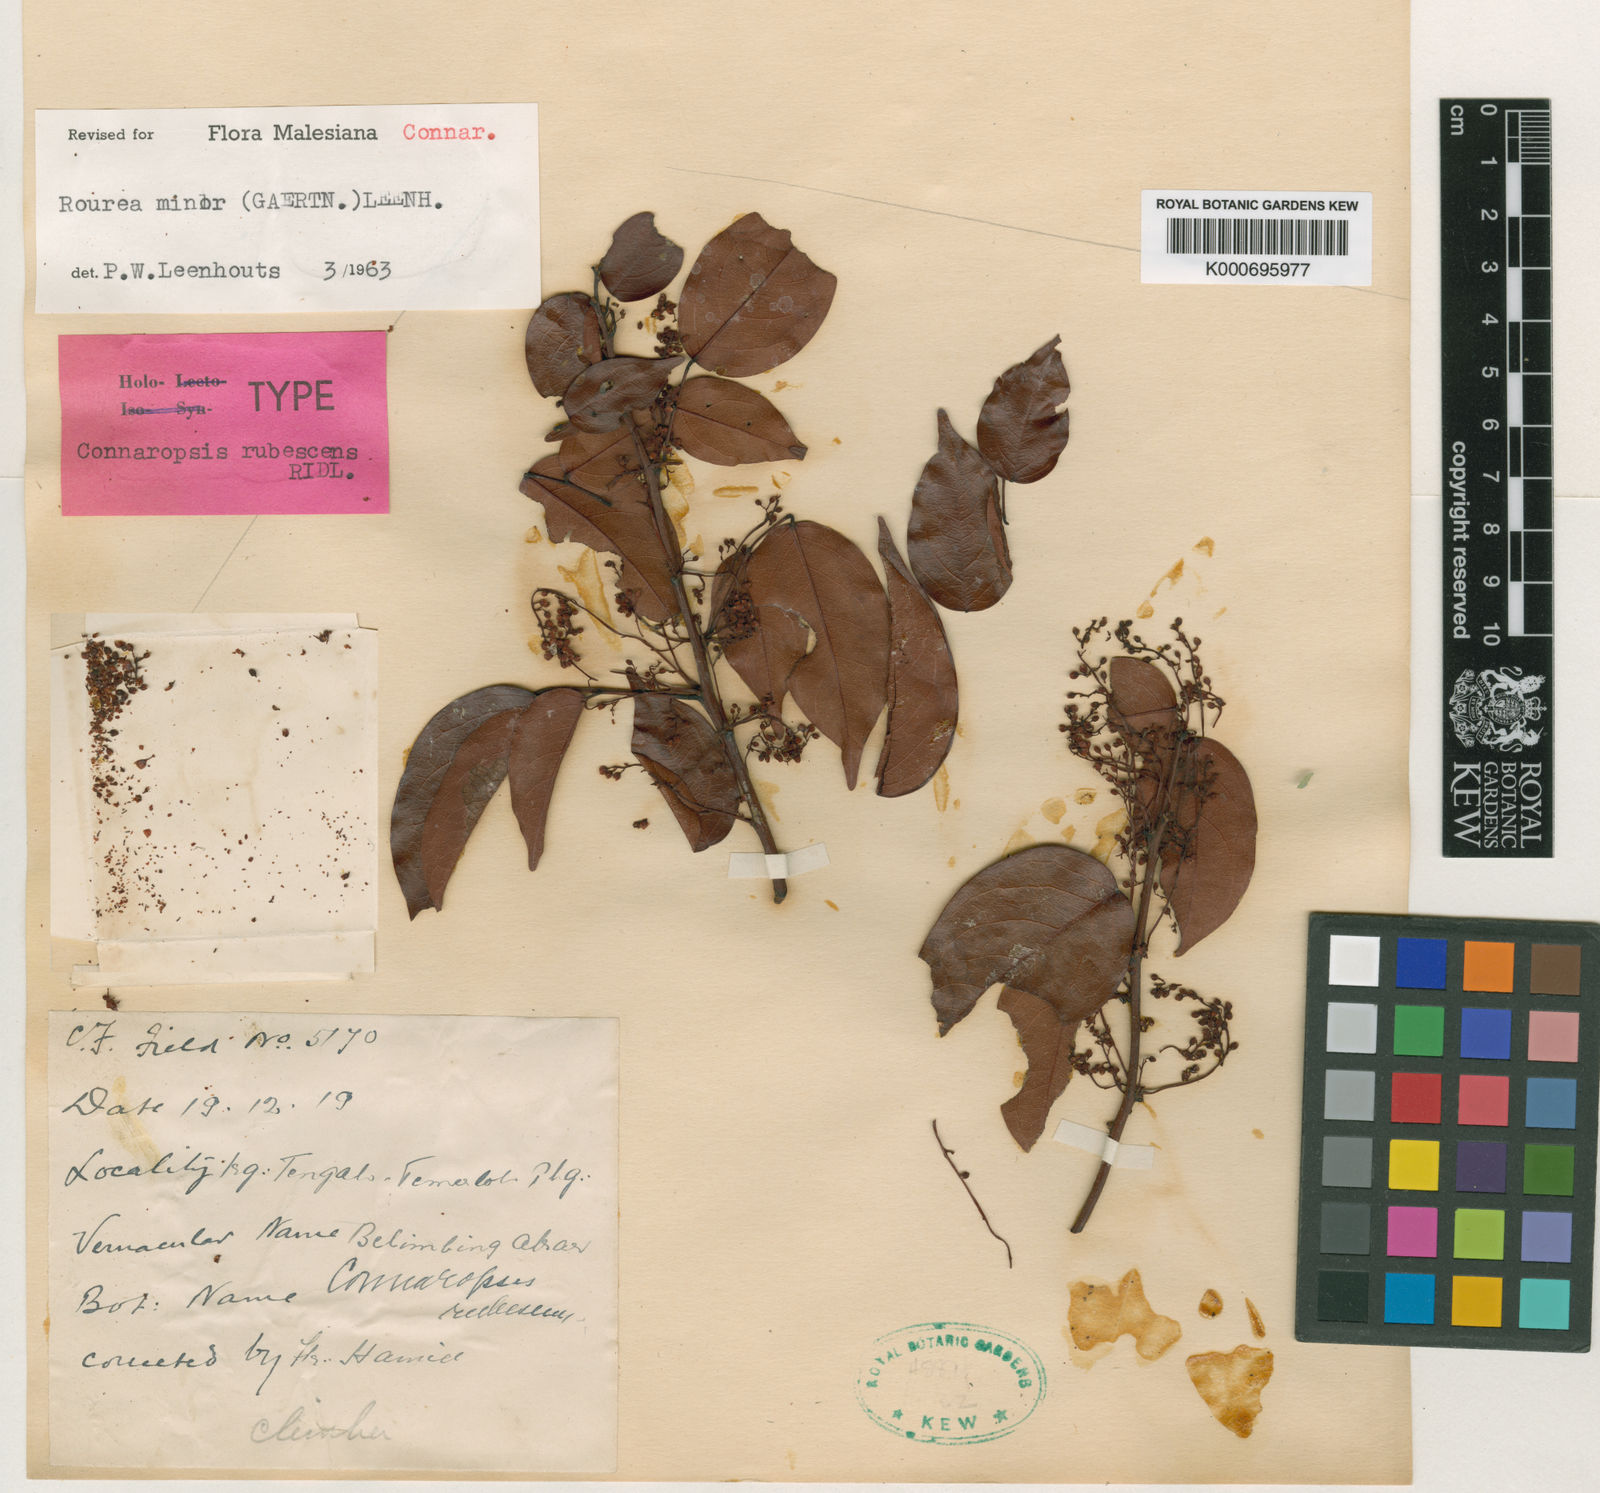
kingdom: Plantae
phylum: Tracheophyta
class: Magnoliopsida
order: Oxalidales
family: Connaraceae
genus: Rourea
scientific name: Rourea
